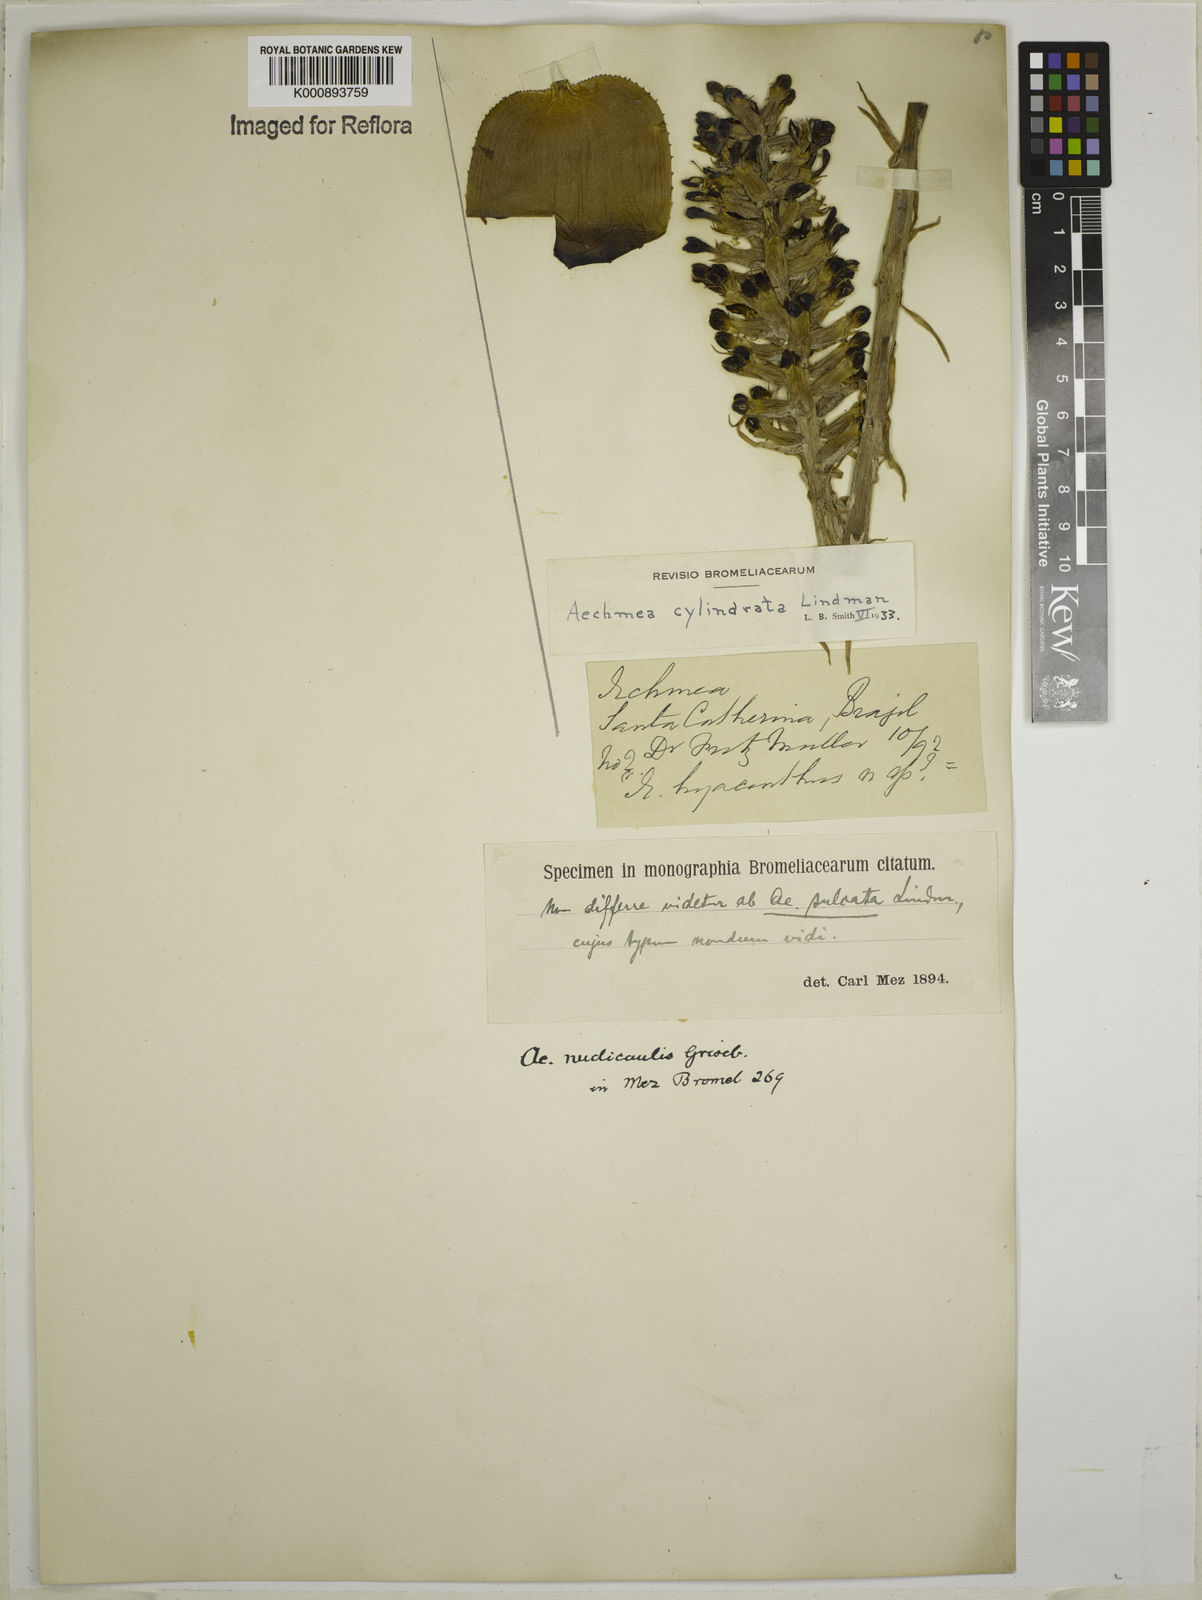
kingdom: Plantae
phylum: Tracheophyta
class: Liliopsida
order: Poales
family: Bromeliaceae
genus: Aechmea
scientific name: Aechmea cylindrata
